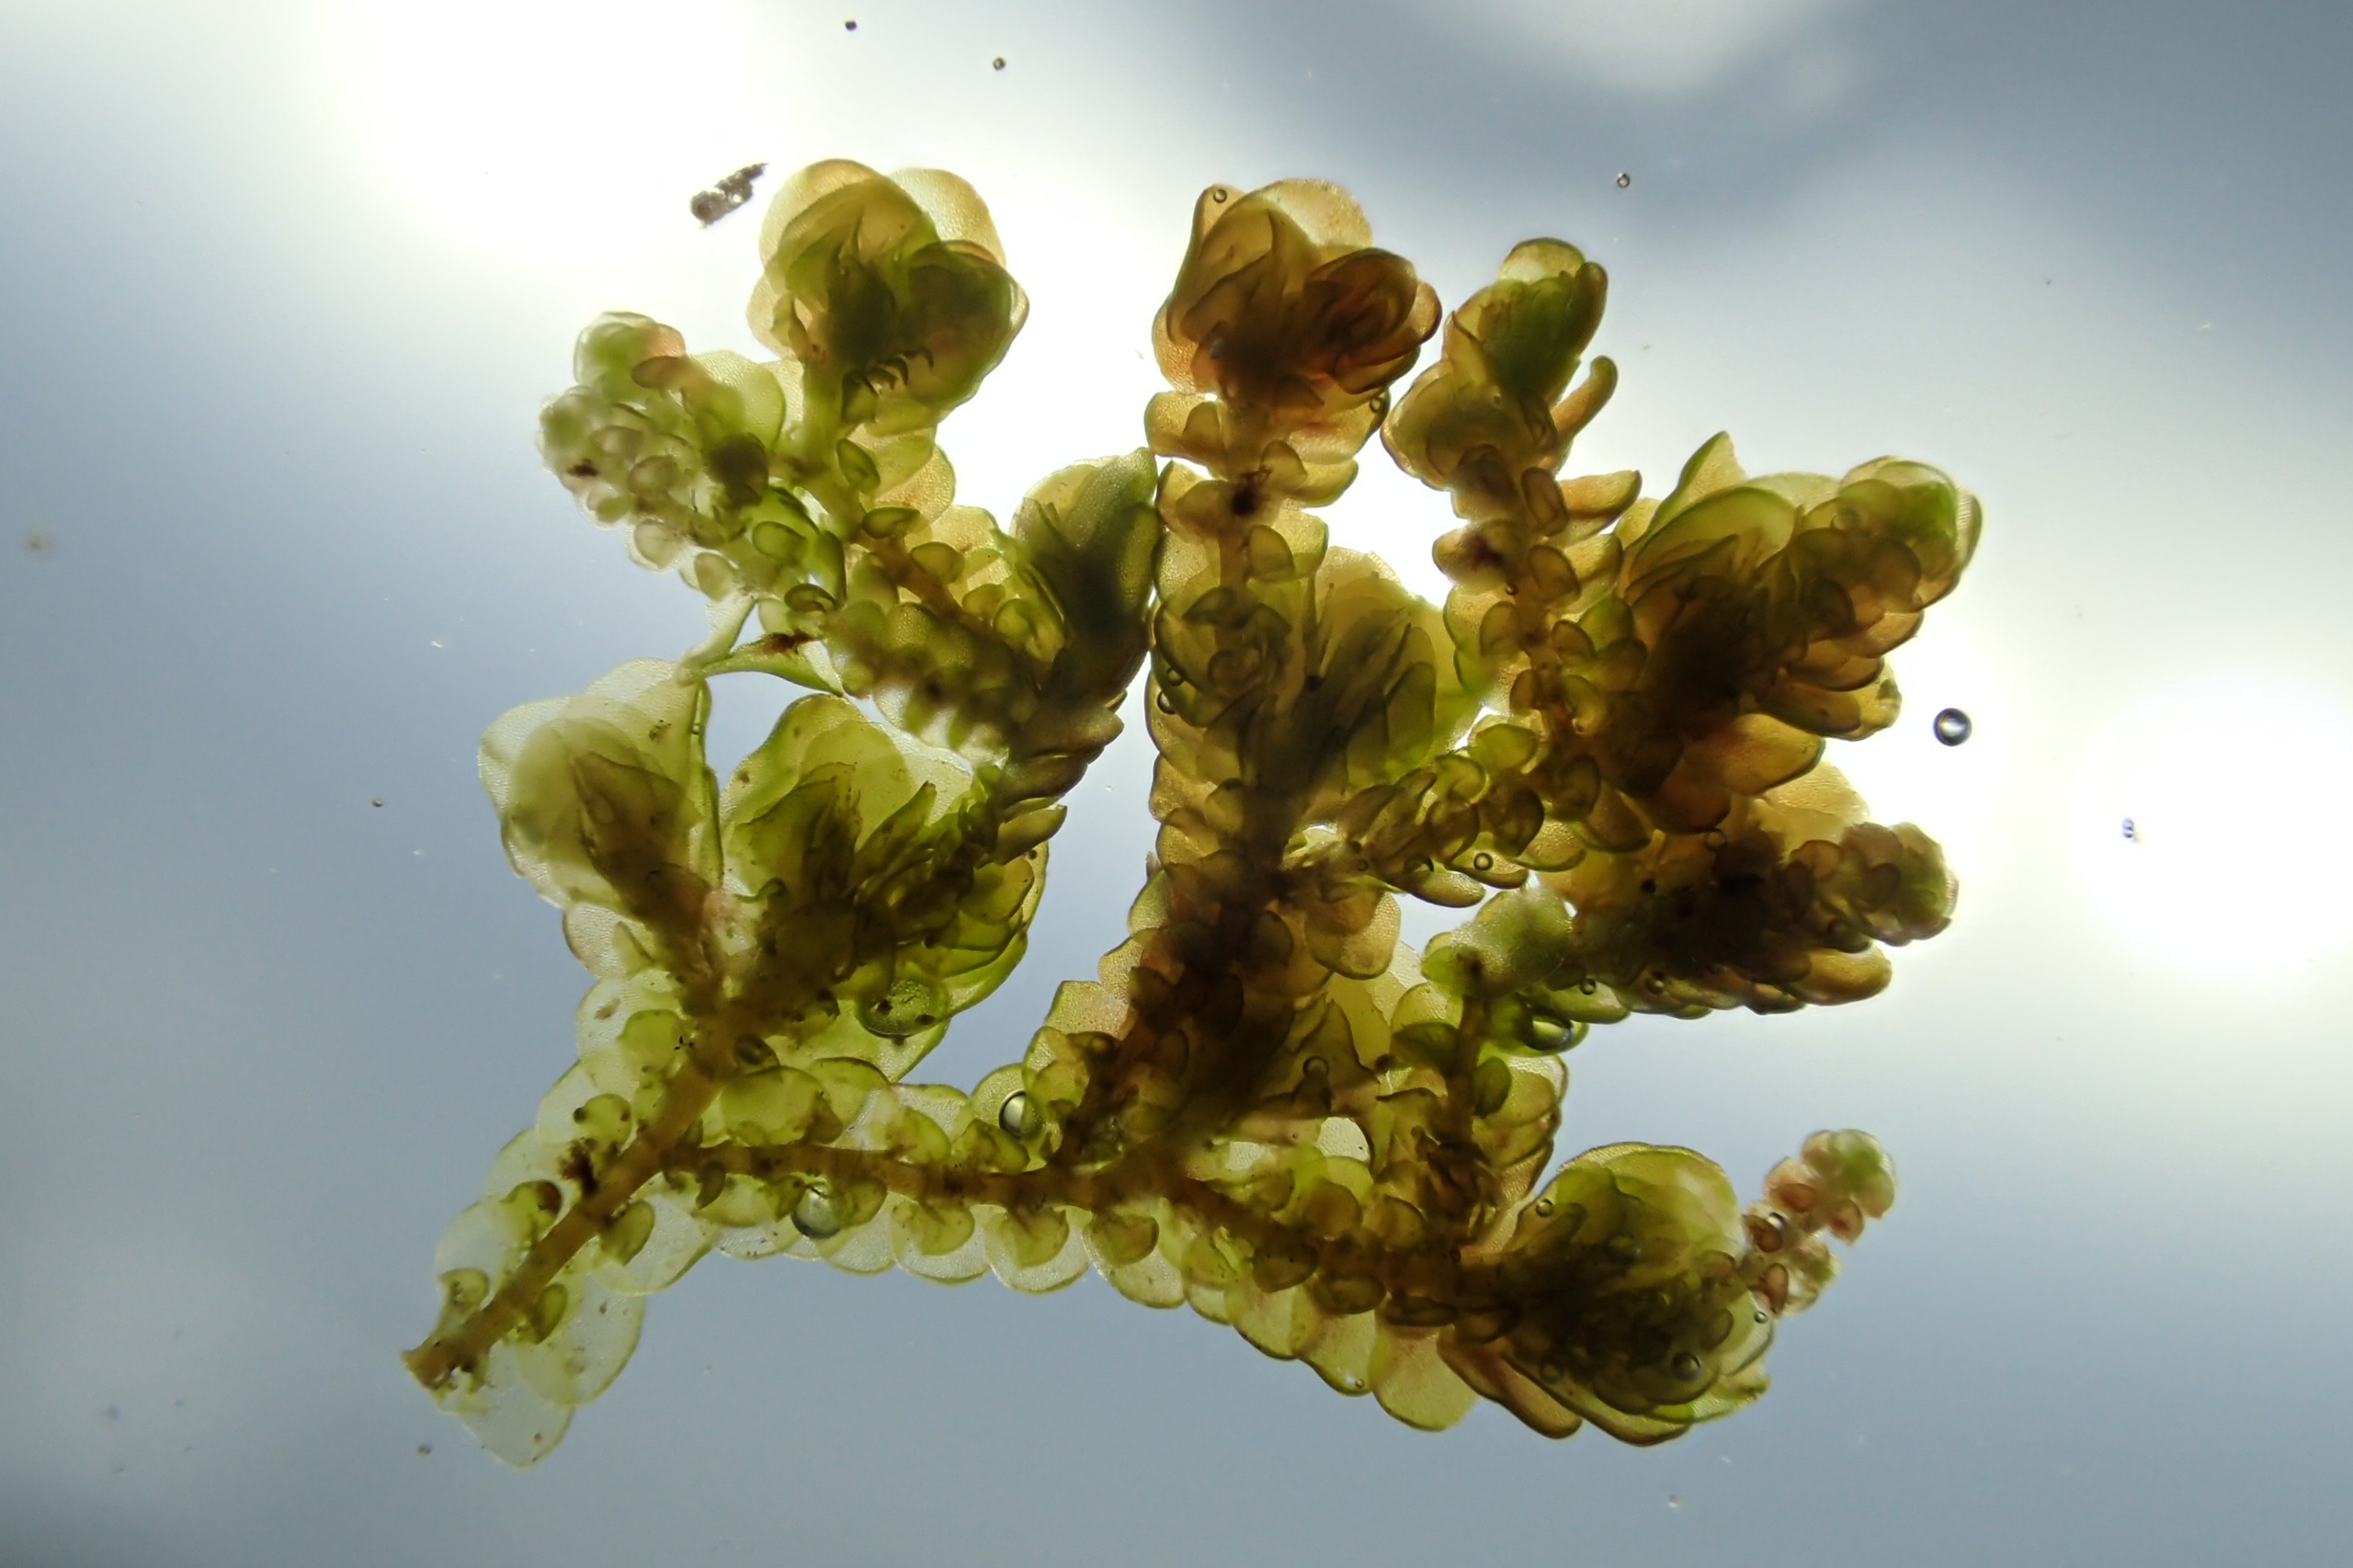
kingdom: Plantae
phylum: Marchantiophyta
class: Jungermanniopsida
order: Porellales
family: Frullaniaceae
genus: Frullania
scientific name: Frullania dilatata
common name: Mat bronzemos
